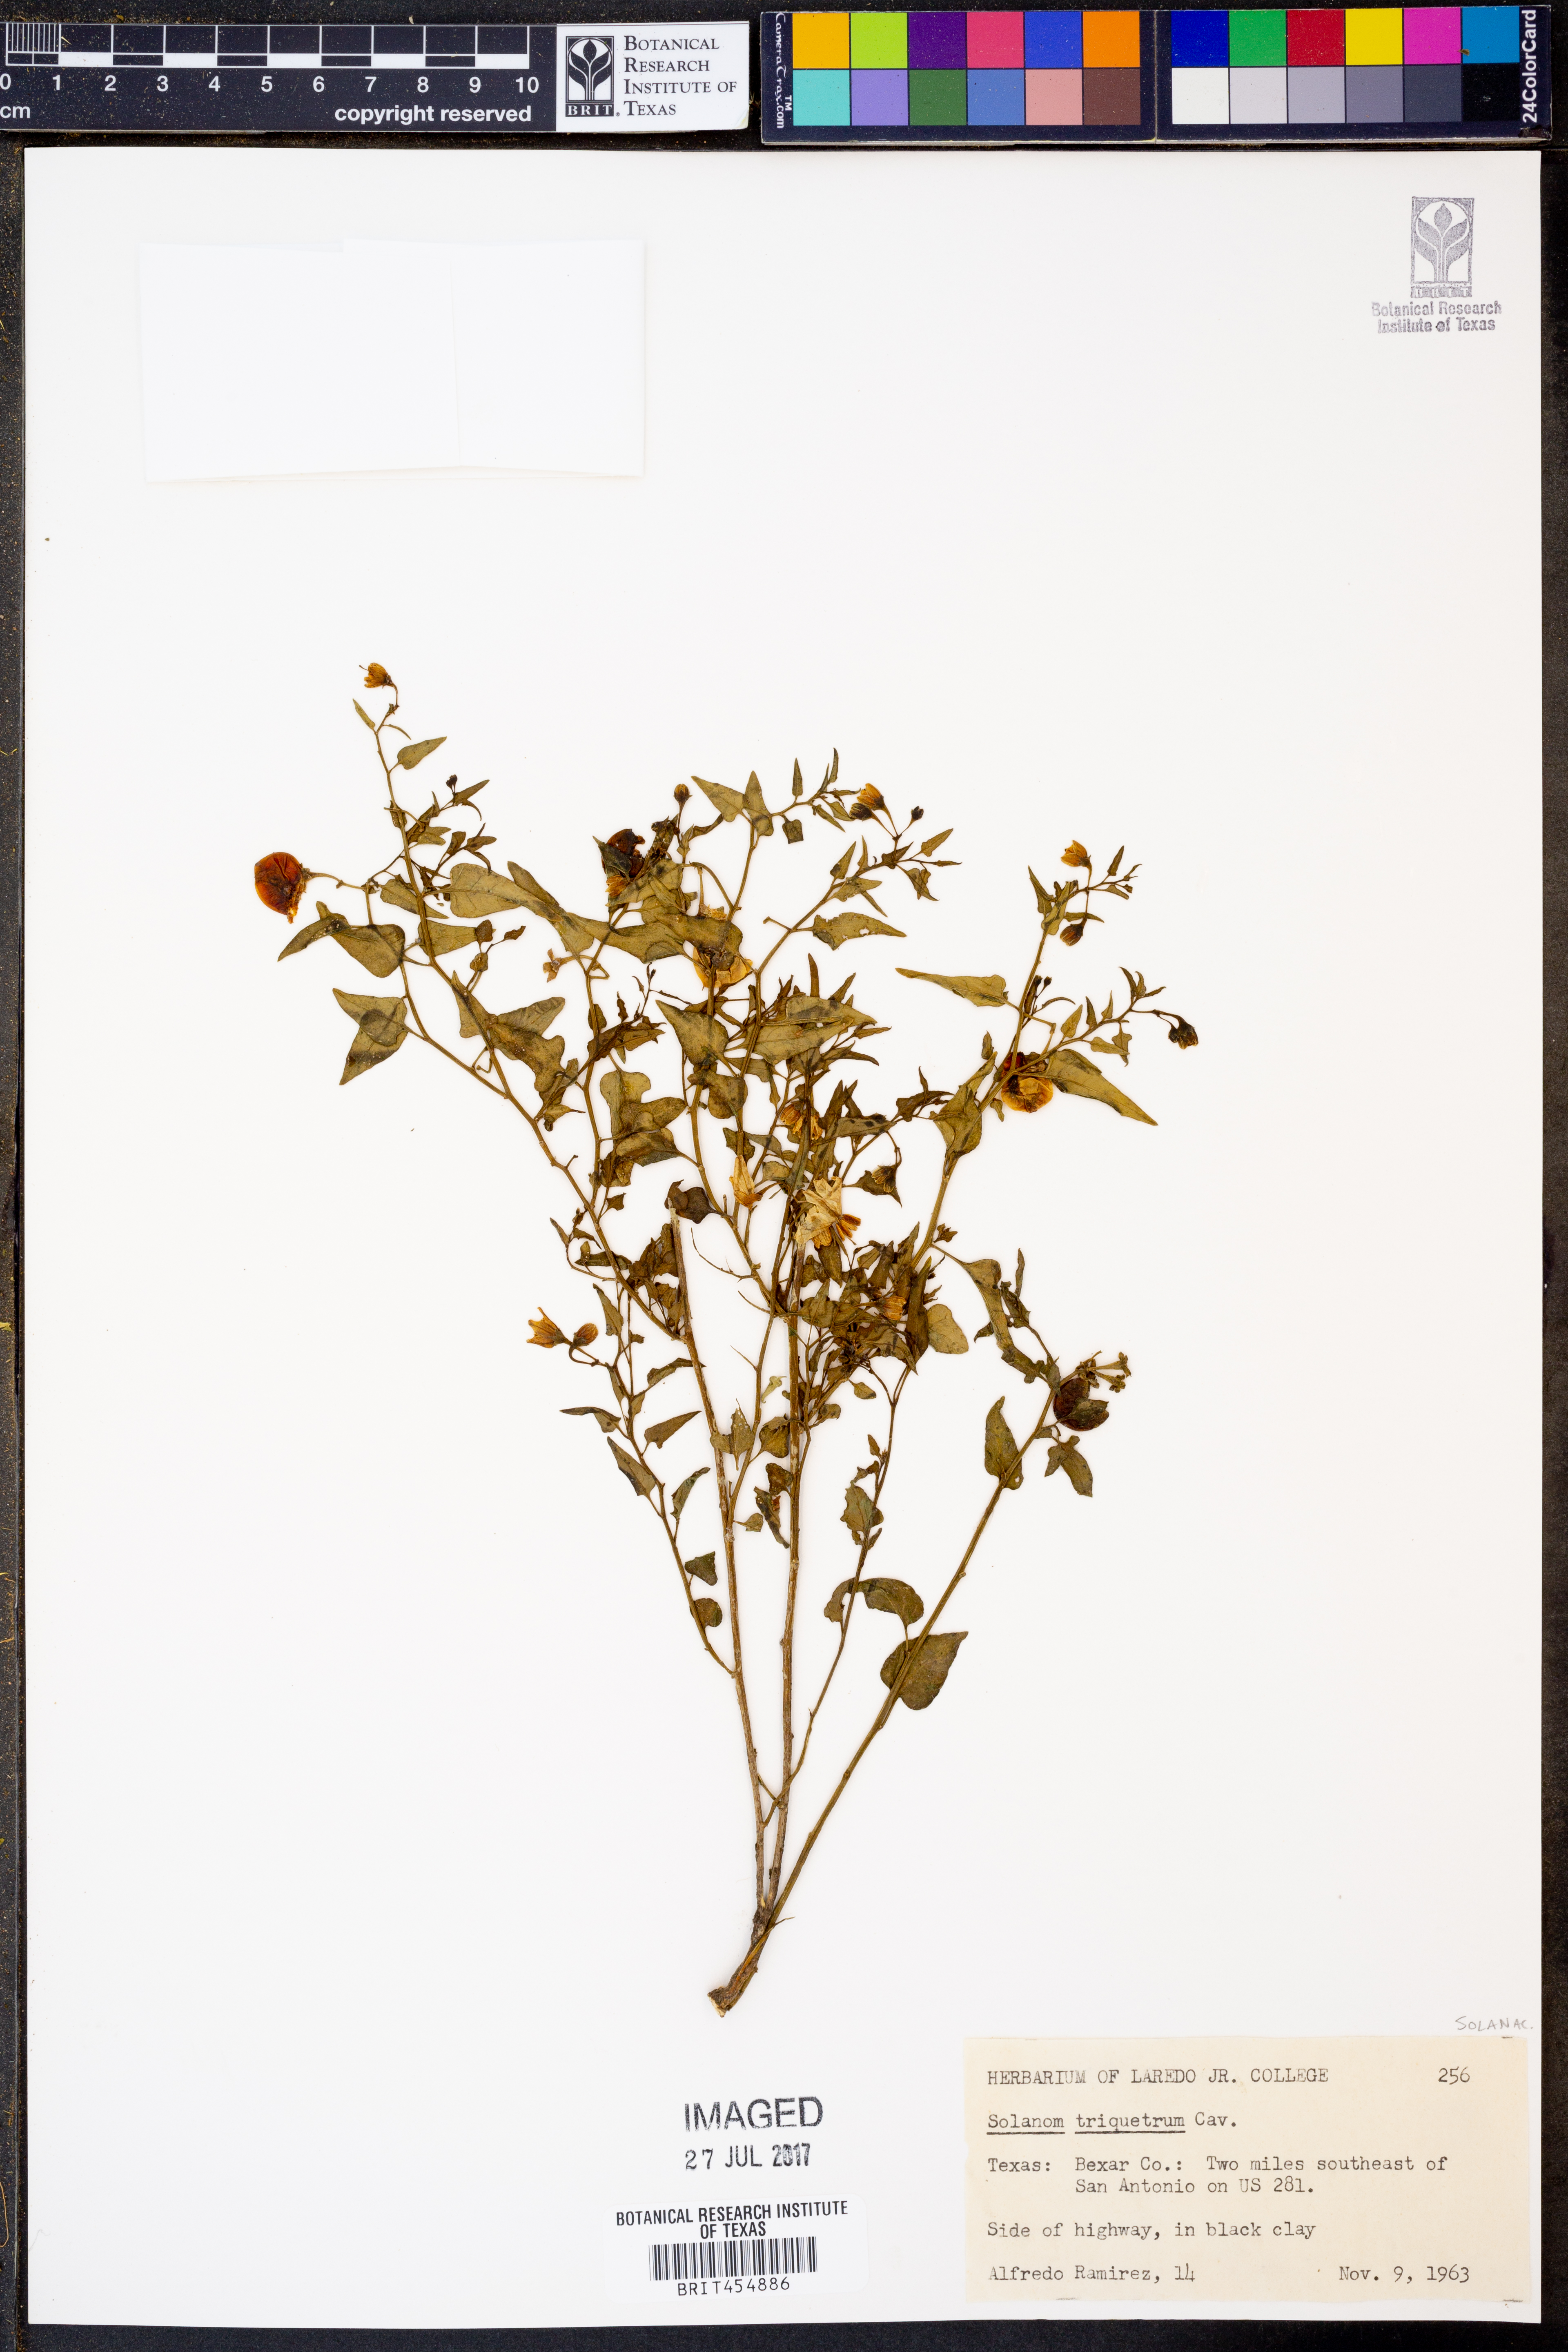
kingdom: Plantae
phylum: Tracheophyta
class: Magnoliopsida
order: Solanales
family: Solanaceae
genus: Solanum
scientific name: Solanum triquetrum
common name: Texas nightshade
